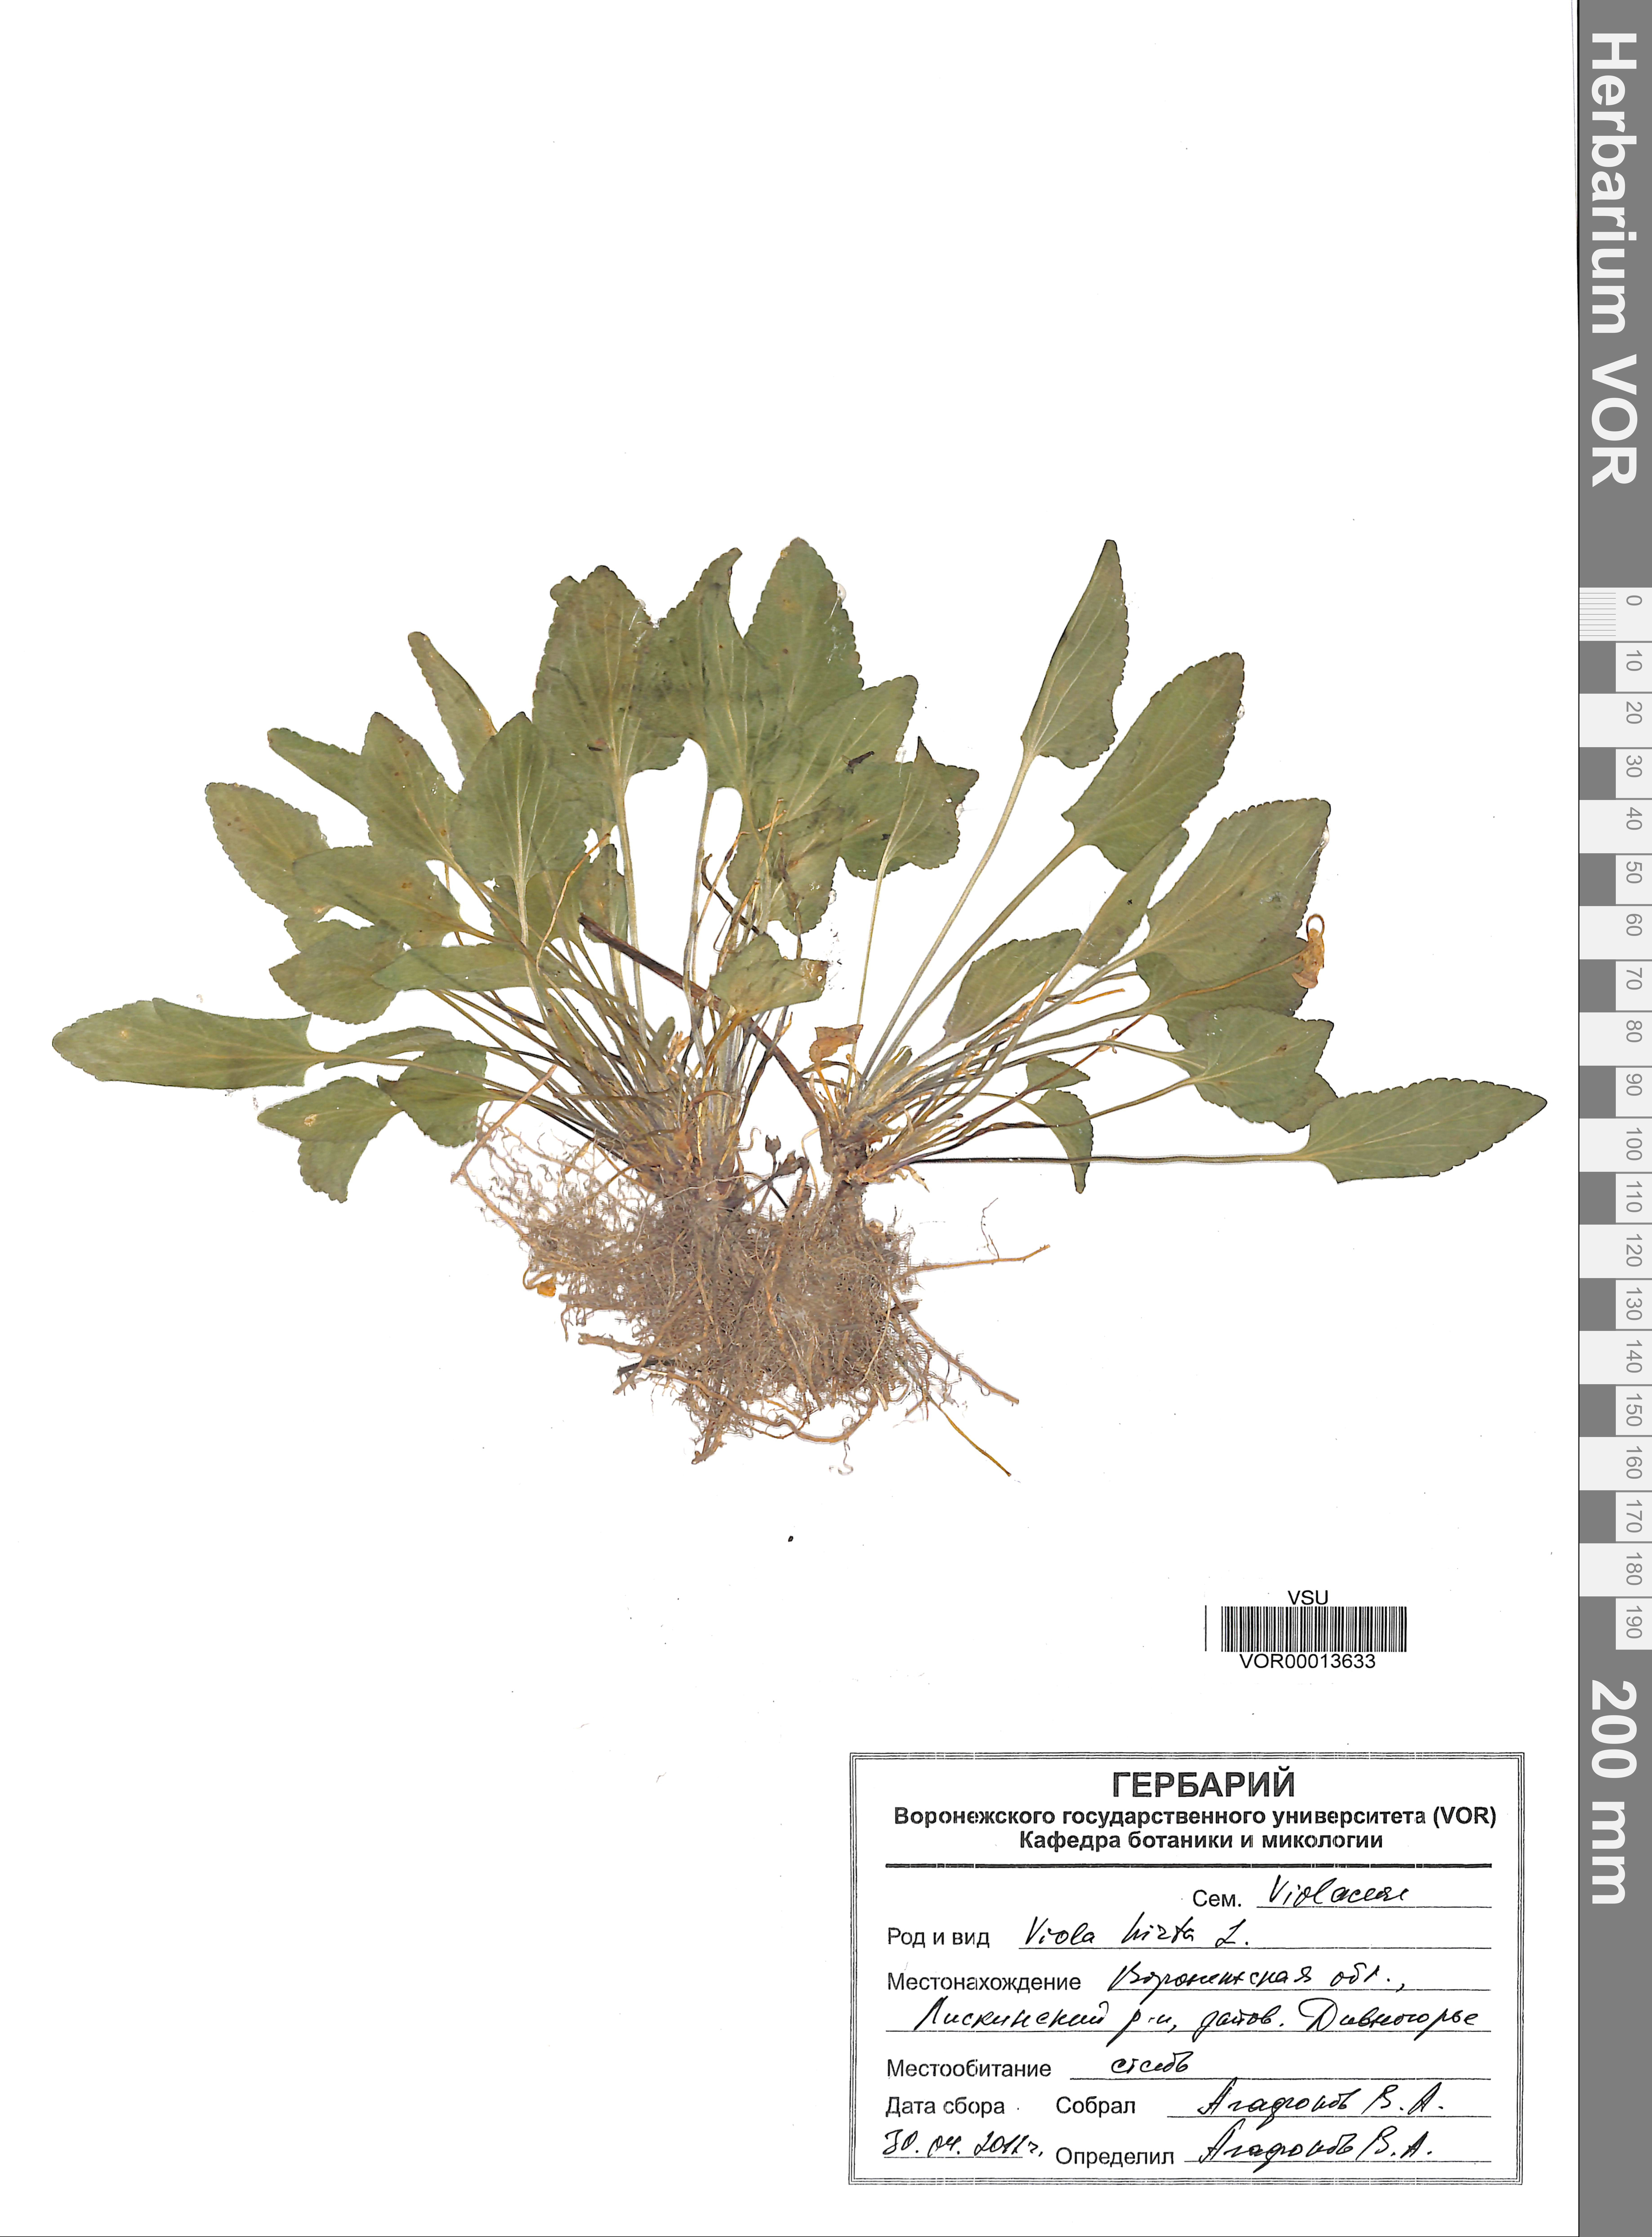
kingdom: Plantae
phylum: Tracheophyta
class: Magnoliopsida
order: Malpighiales
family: Violaceae
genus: Viola
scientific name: Viola hirta
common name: Hairy violet
